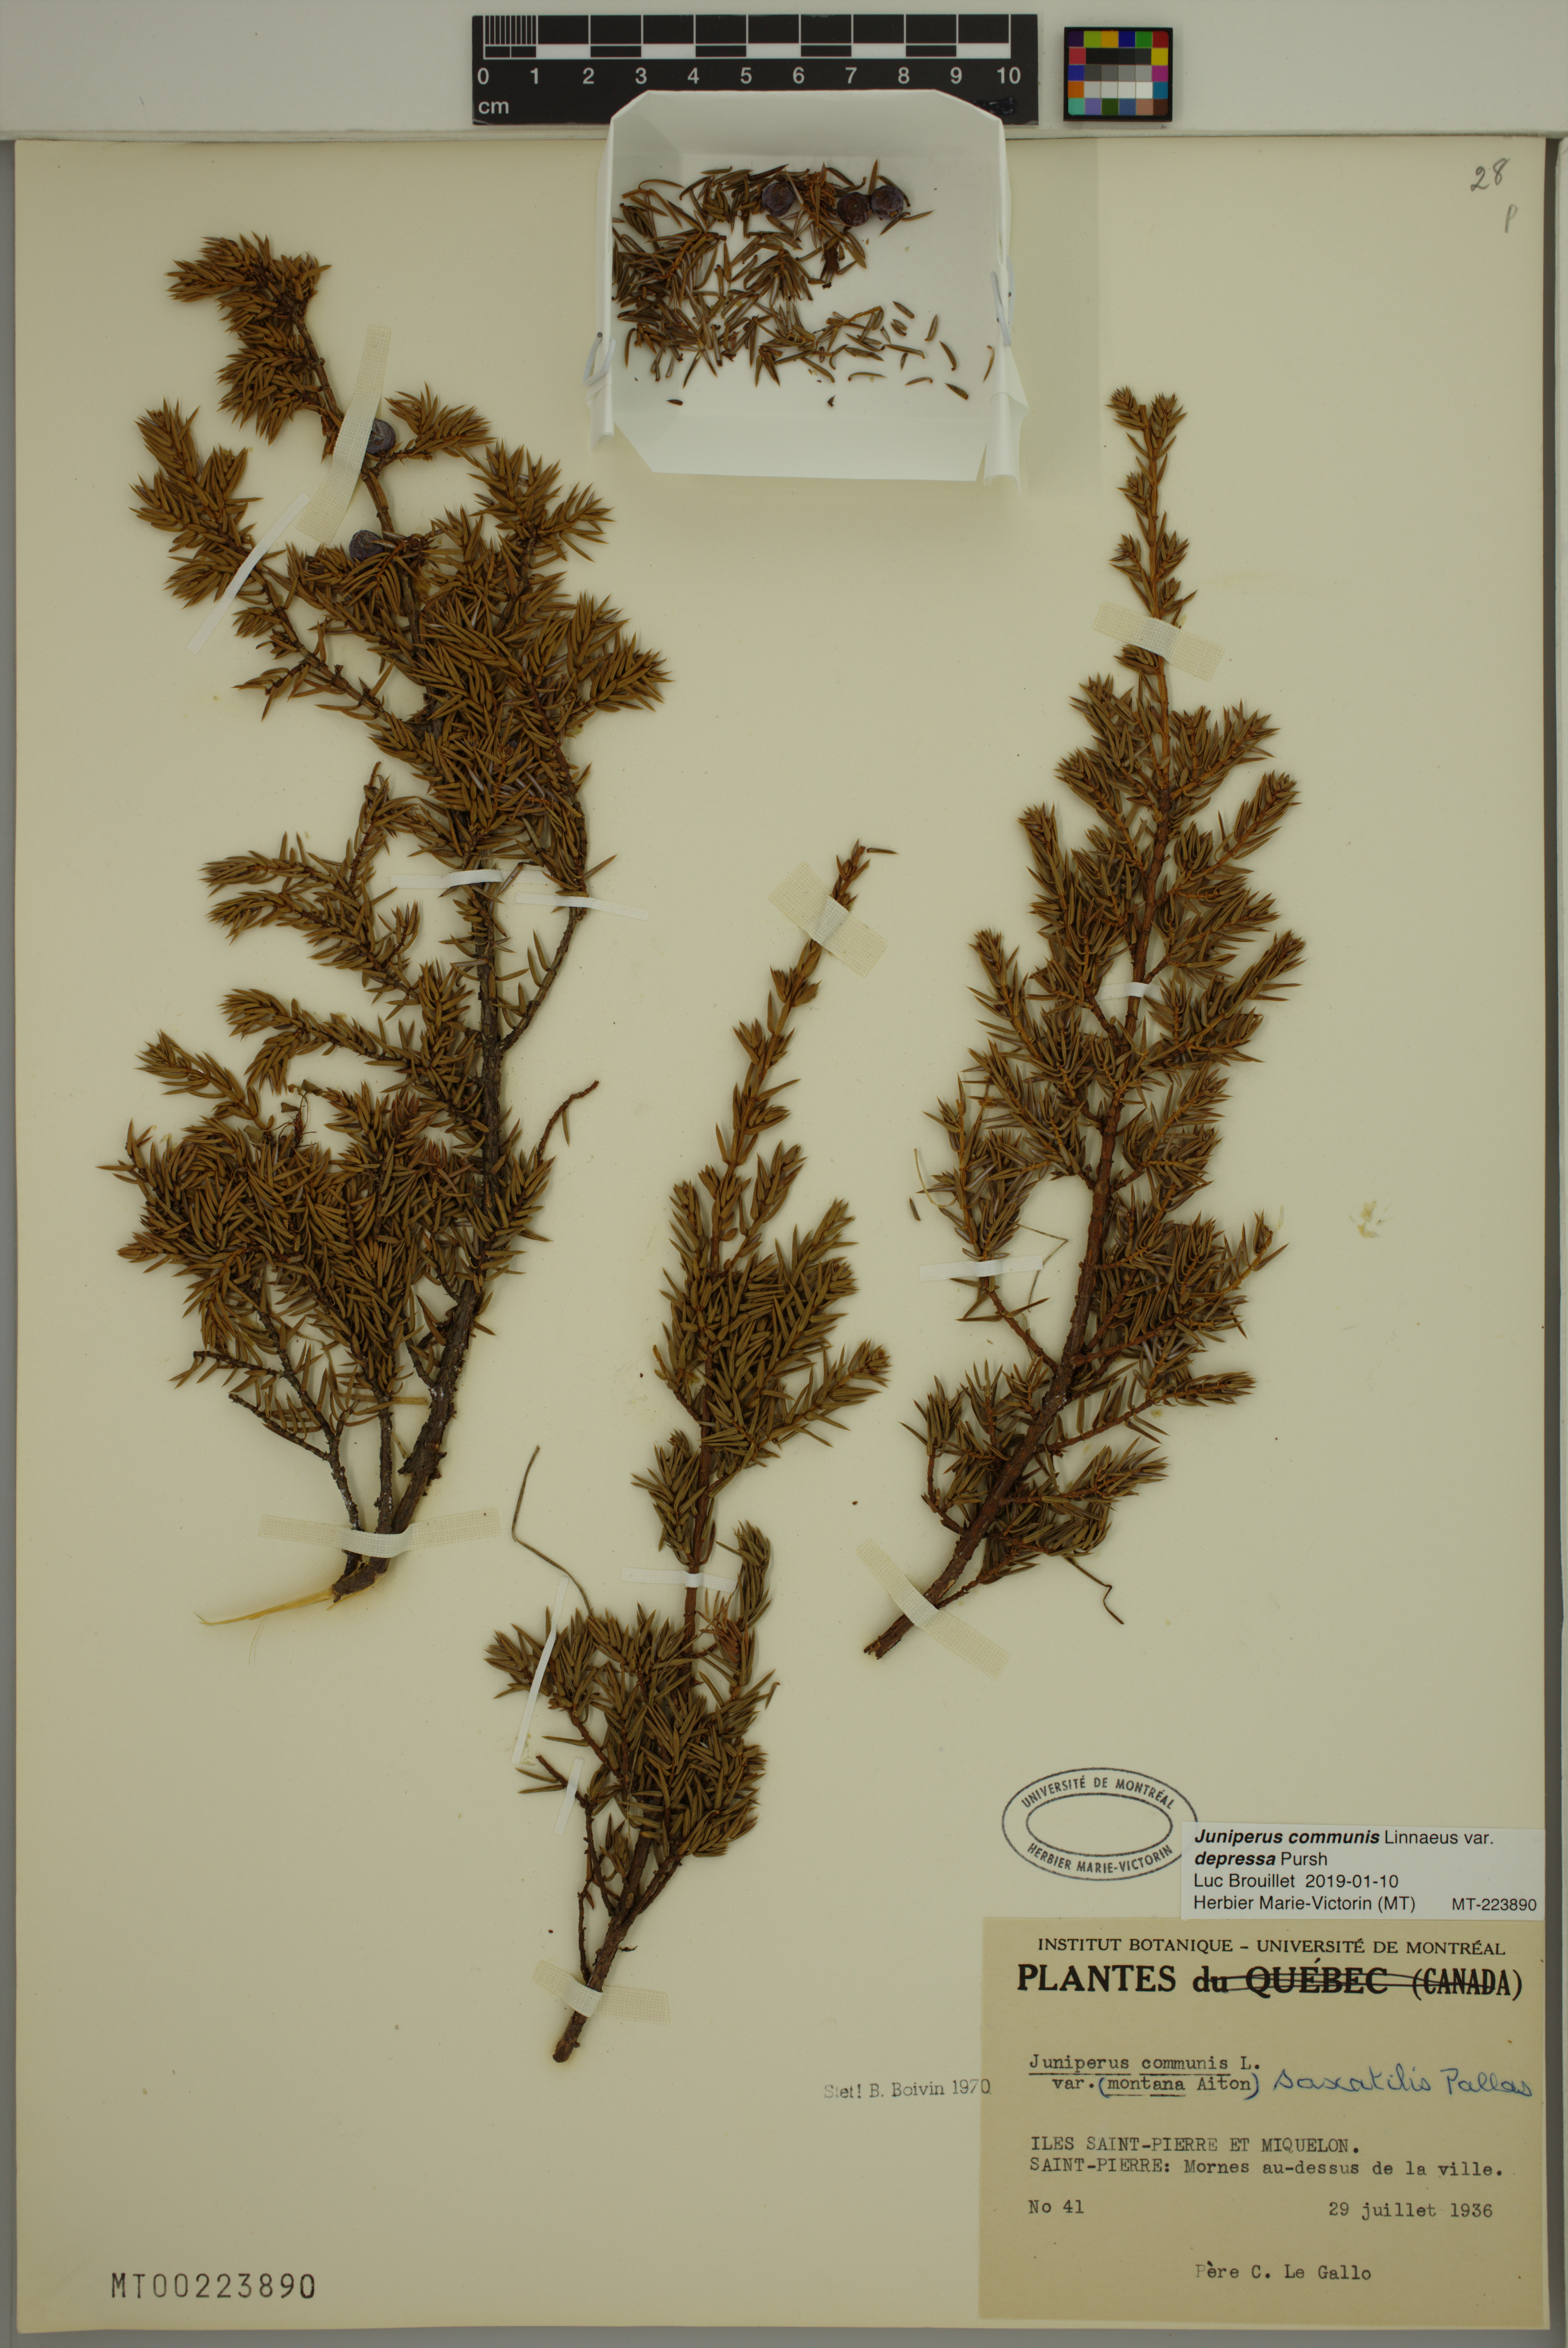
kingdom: Plantae
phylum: Tracheophyta
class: Pinopsida
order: Pinales
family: Cupressaceae
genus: Juniperus
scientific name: Juniperus communis
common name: Common juniper
